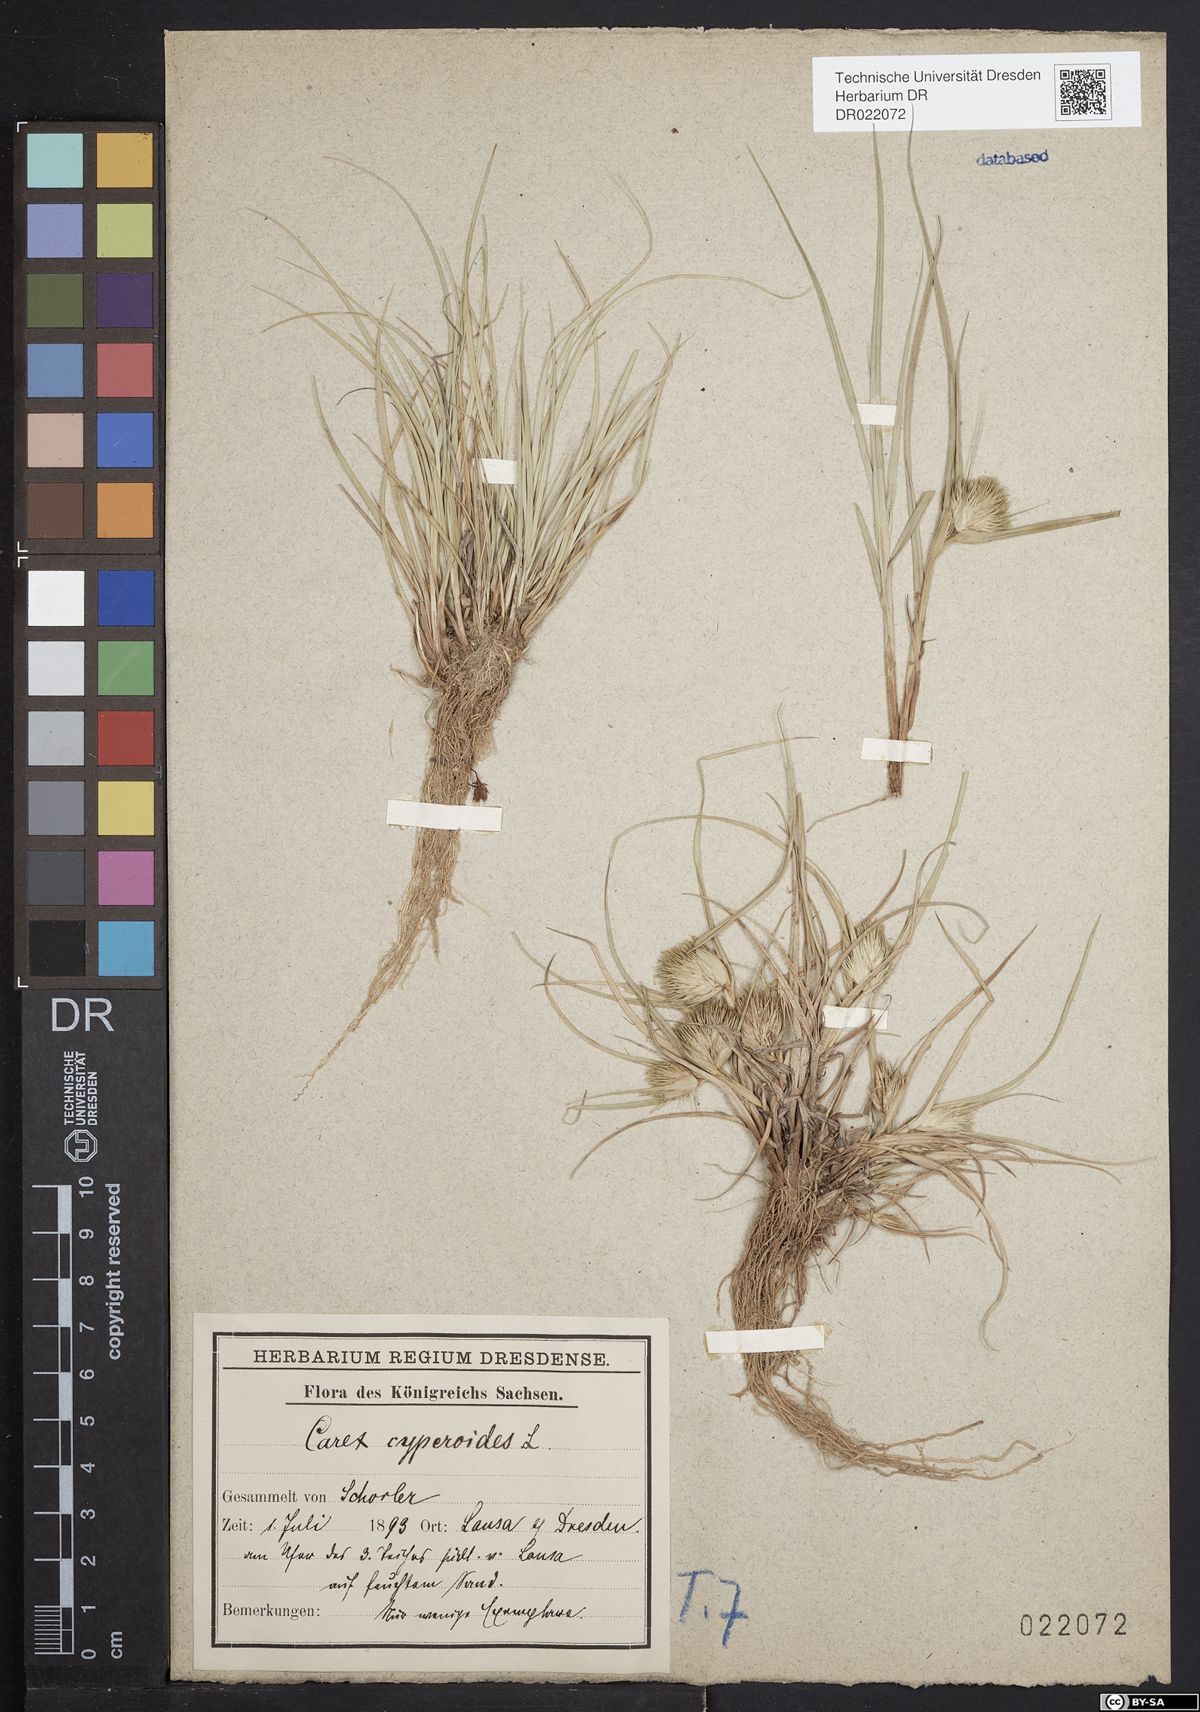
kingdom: Plantae
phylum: Tracheophyta
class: Liliopsida
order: Poales
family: Cyperaceae
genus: Carex
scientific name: Carex bohemica
